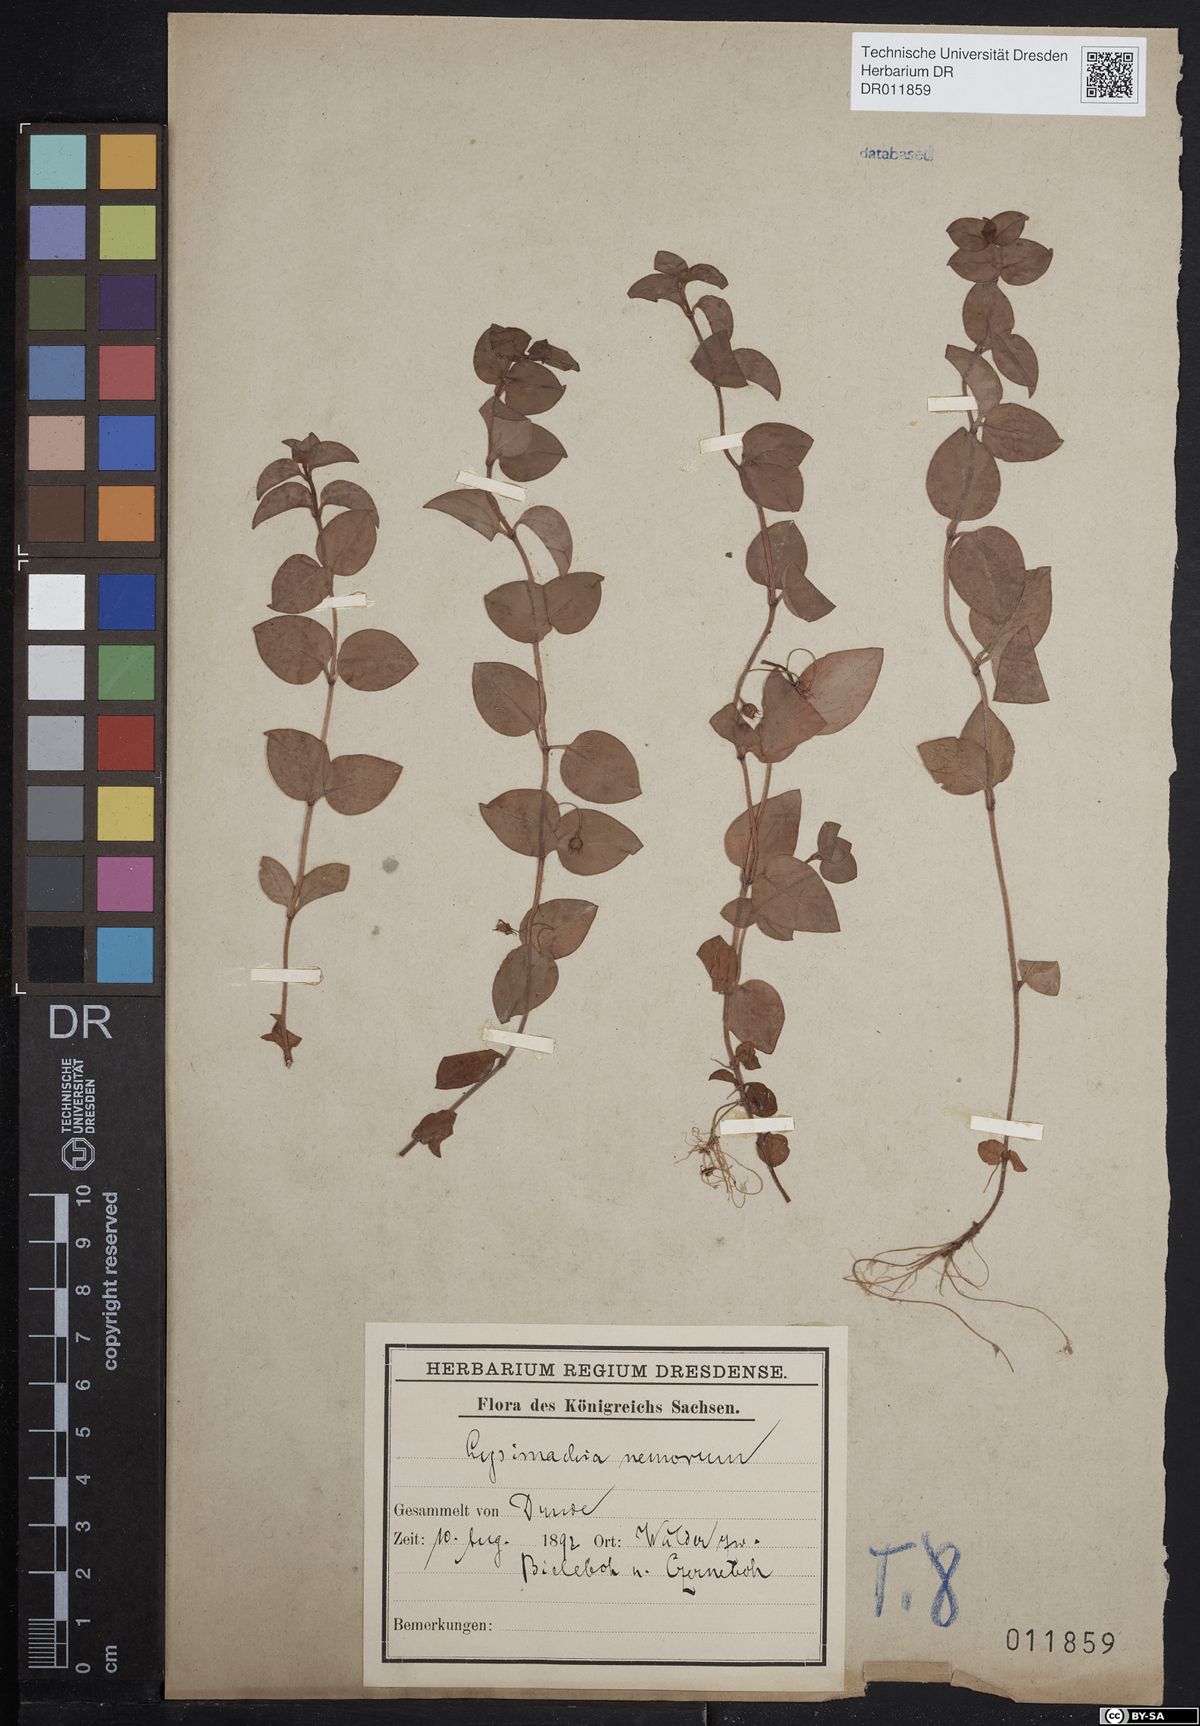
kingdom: Plantae
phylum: Tracheophyta
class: Magnoliopsida
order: Ericales
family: Primulaceae
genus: Lysimachia
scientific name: Lysimachia nemorum
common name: Yellow pimpernel
